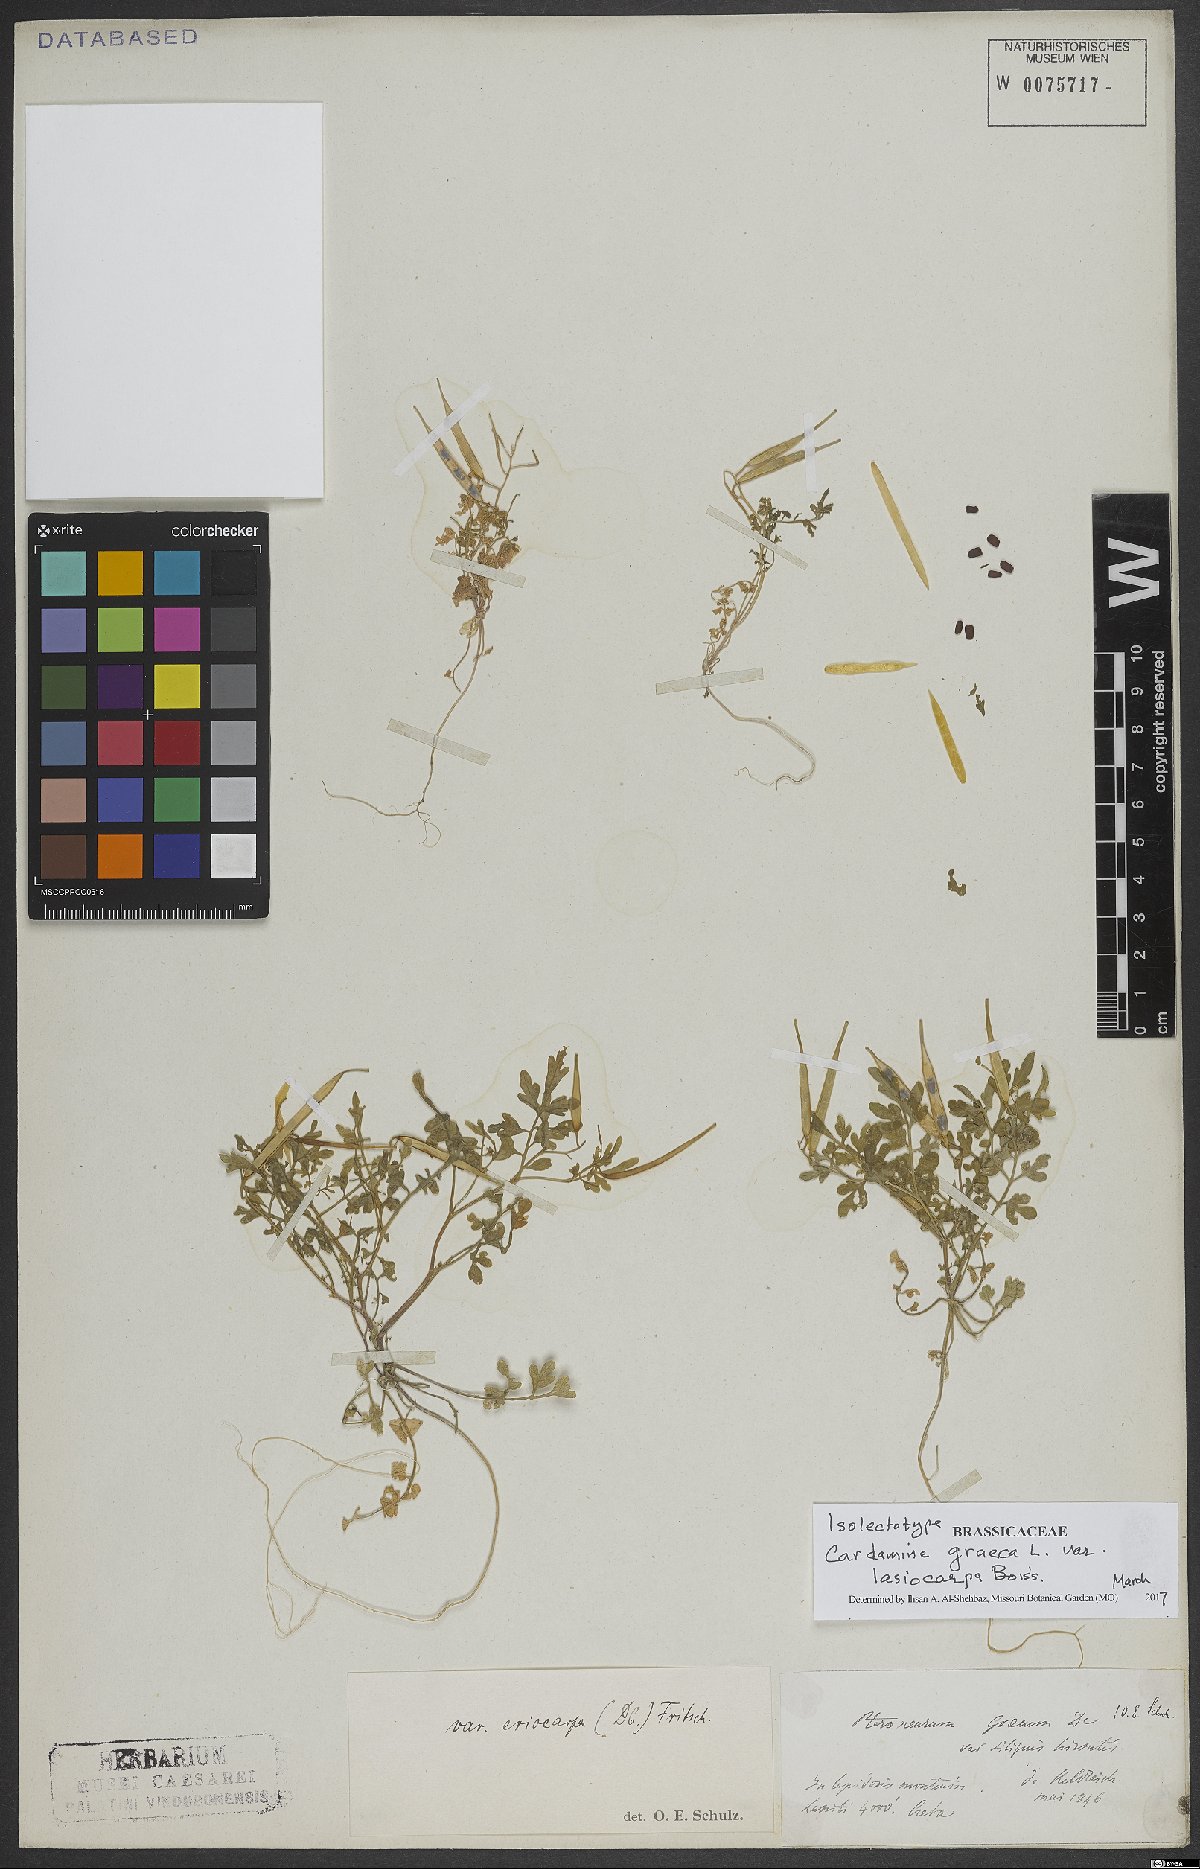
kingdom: Plantae
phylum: Tracheophyta
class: Magnoliopsida
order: Brassicales
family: Brassicaceae
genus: Cardamine
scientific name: Cardamine graeca
